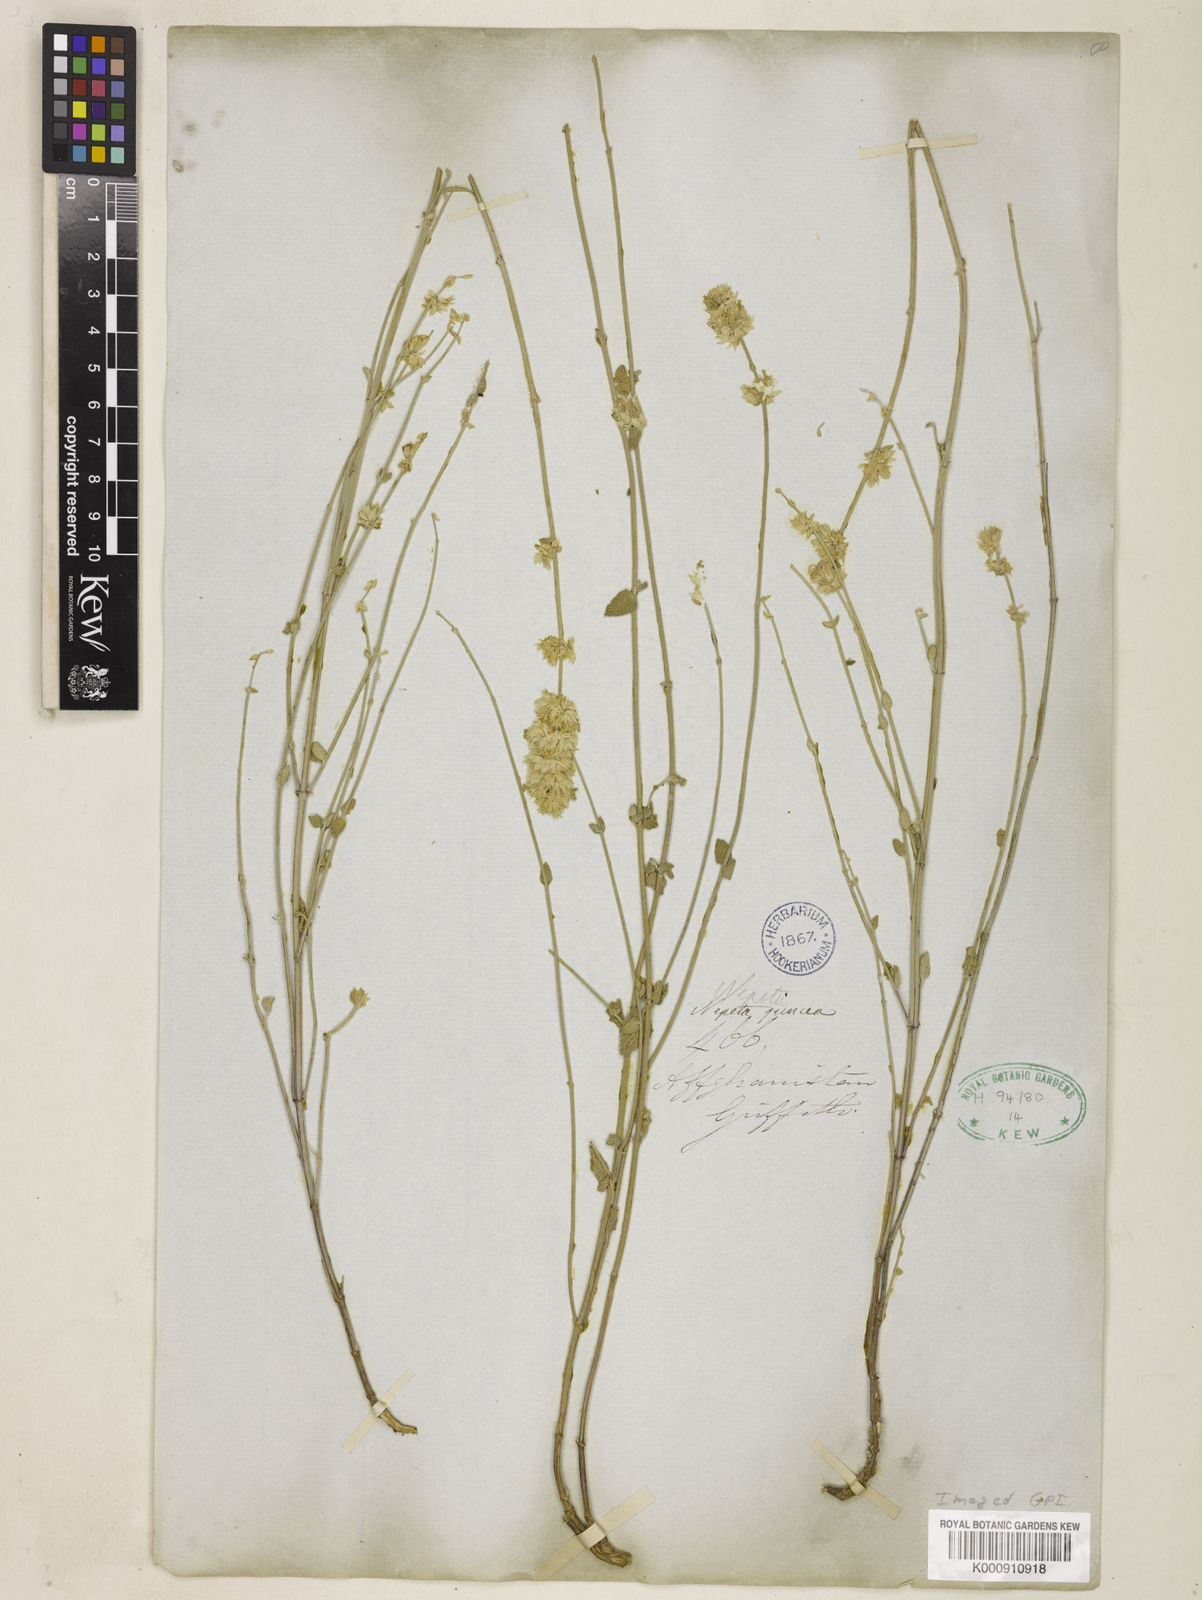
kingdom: Plantae
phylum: Tracheophyta
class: Magnoliopsida
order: Lamiales
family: Lamiaceae
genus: Nepeta
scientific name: Nepeta juncea
